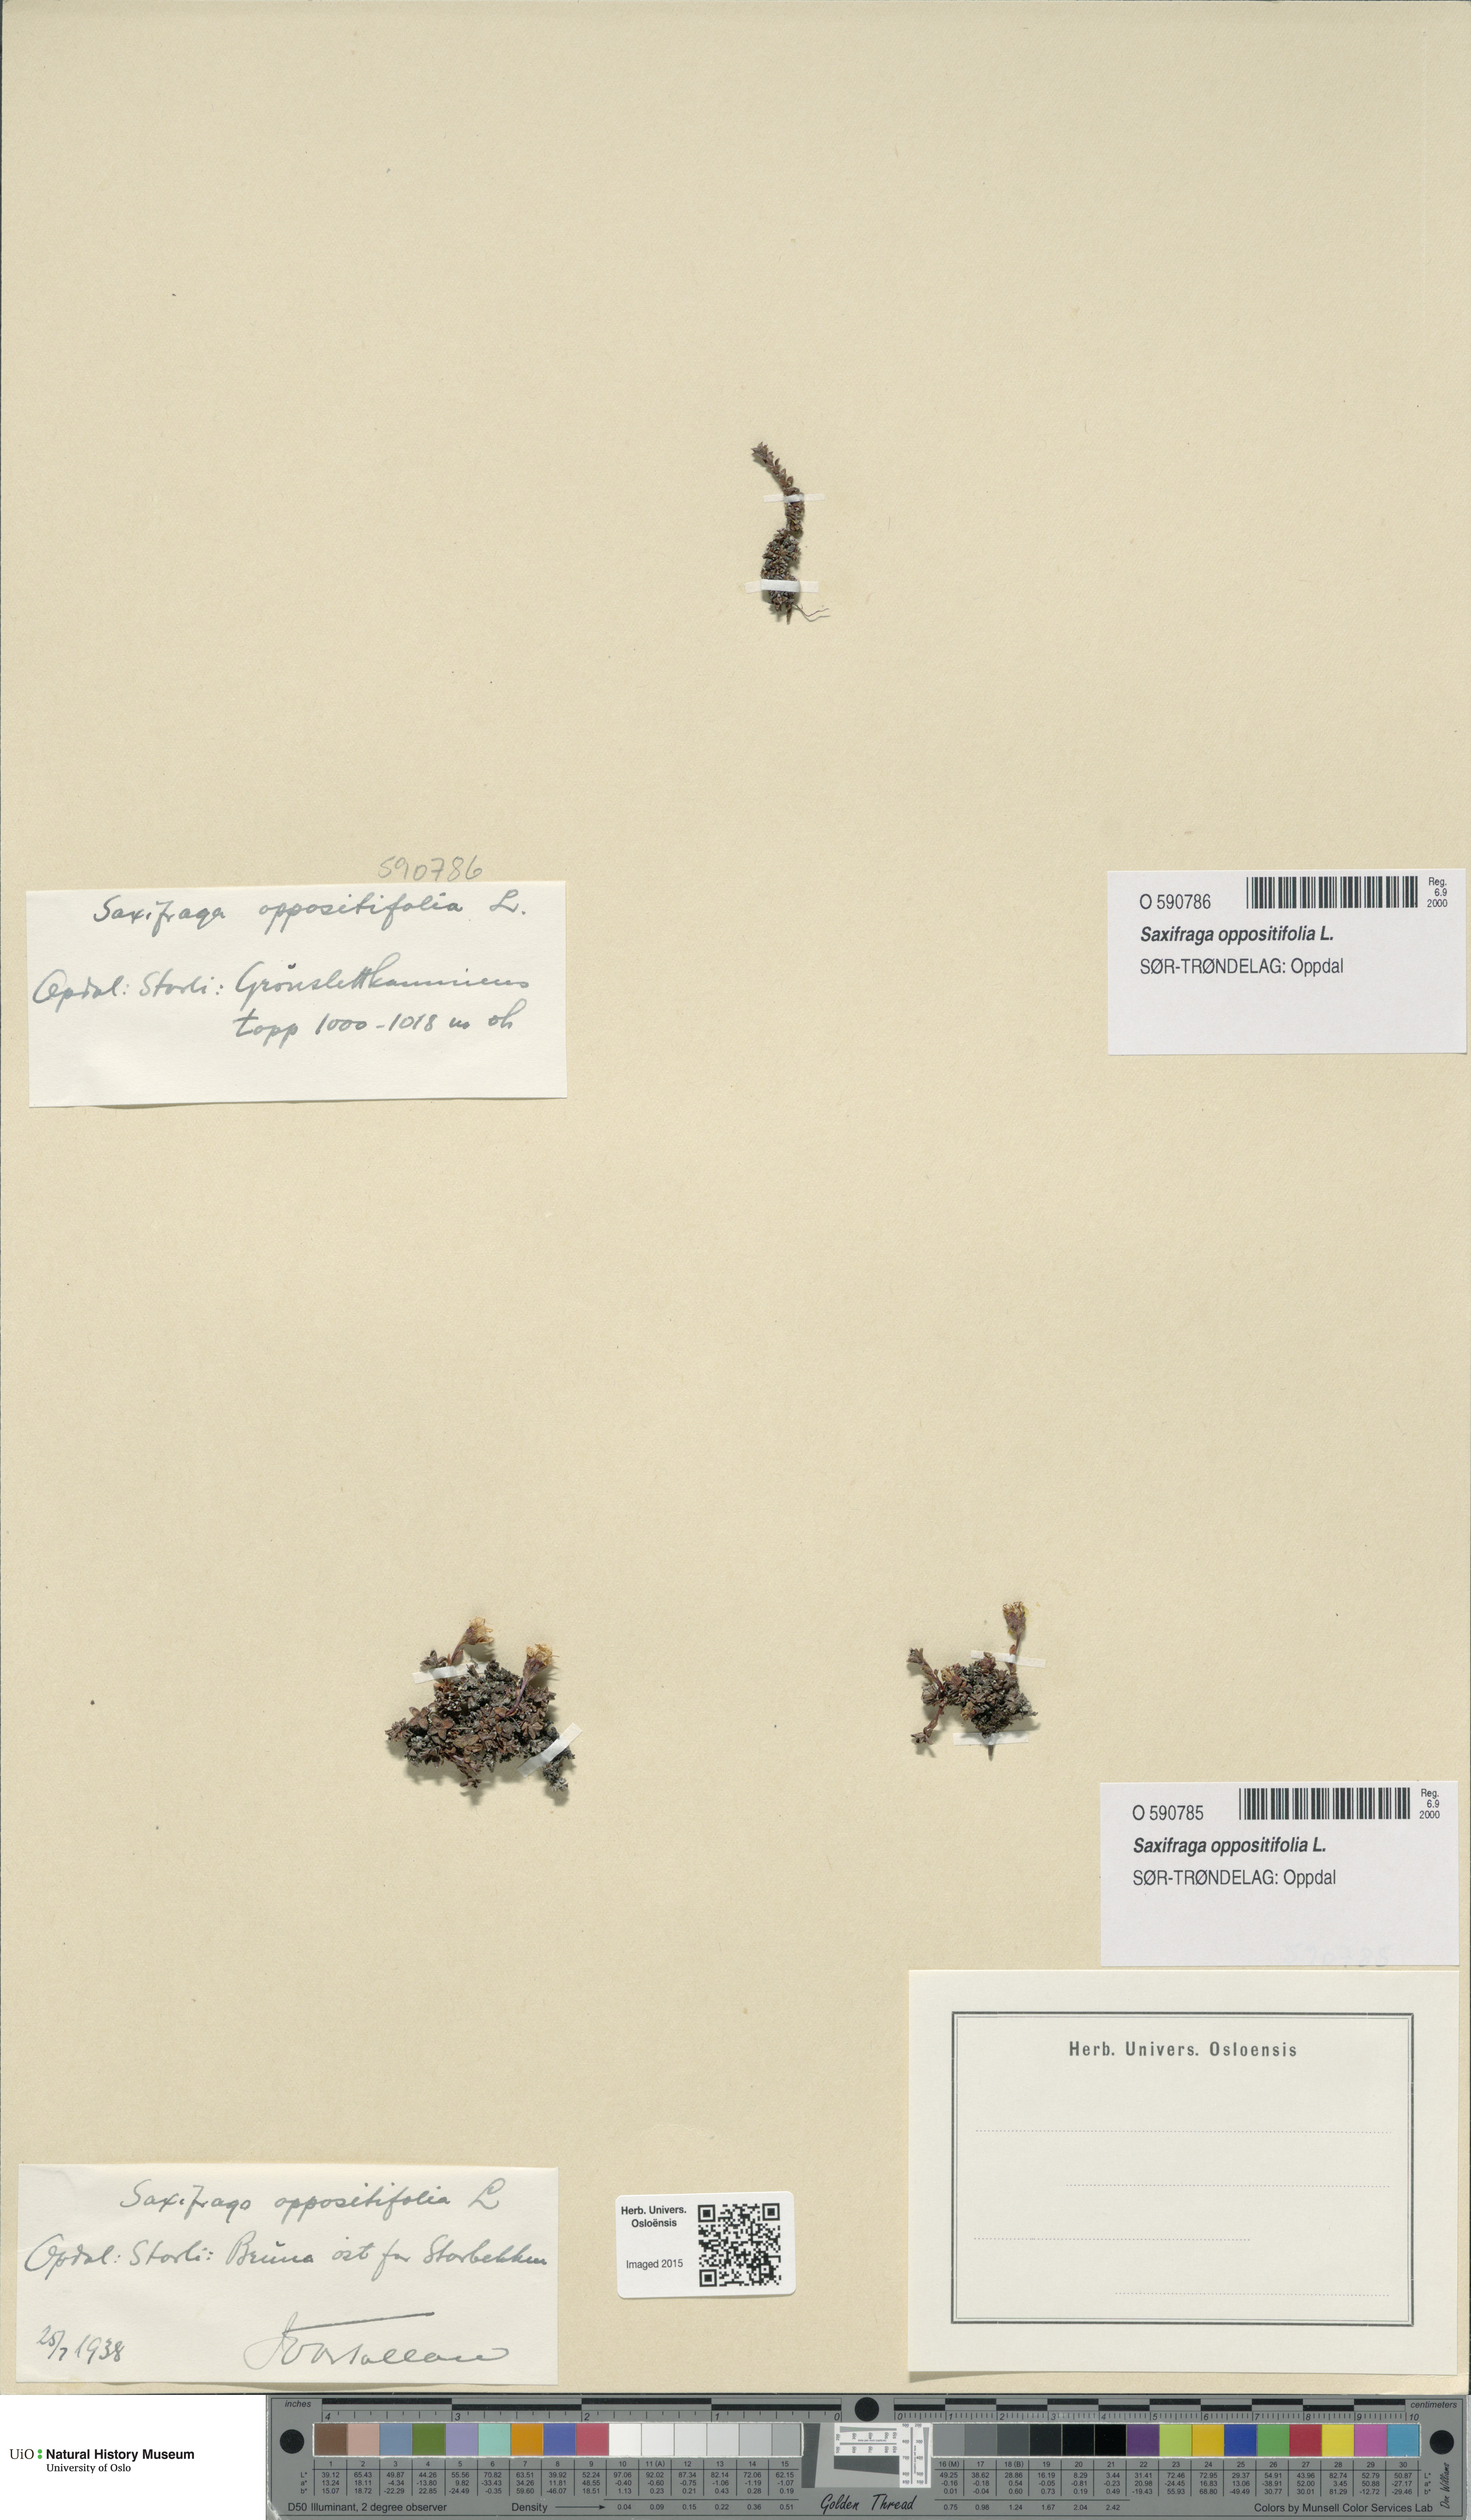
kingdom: Plantae
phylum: Tracheophyta
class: Magnoliopsida
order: Saxifragales
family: Saxifragaceae
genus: Saxifraga
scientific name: Saxifraga oppositifolia
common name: Purple saxifrage
